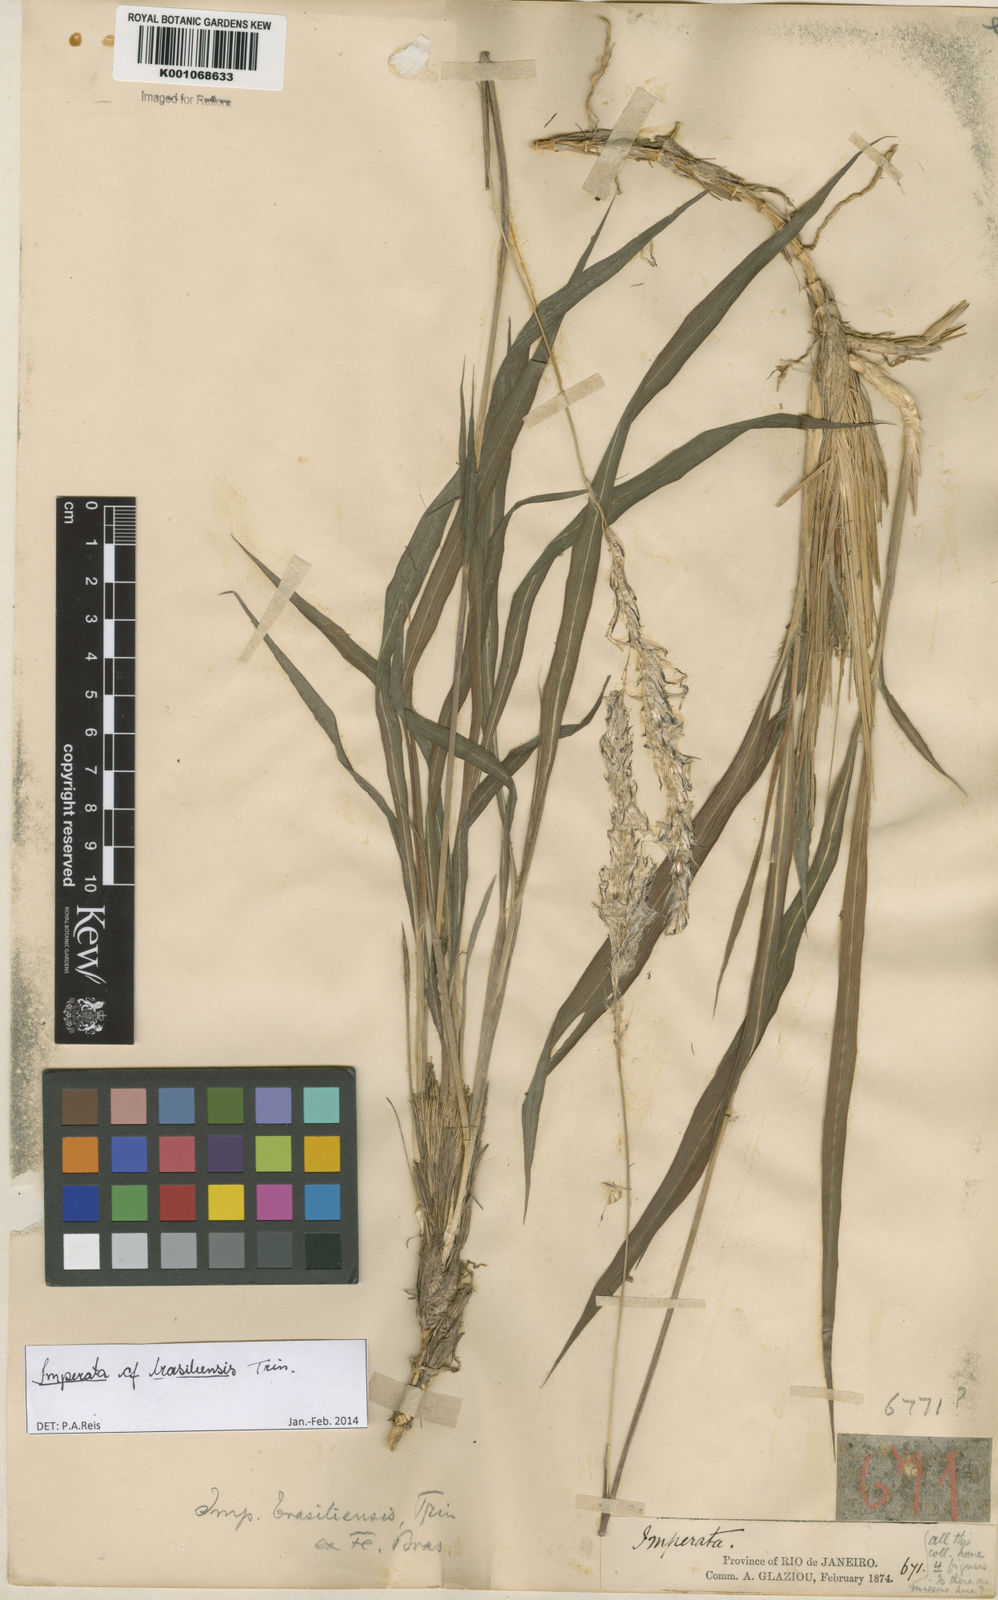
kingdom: Plantae
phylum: Tracheophyta
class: Liliopsida
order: Poales
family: Poaceae
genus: Imperata
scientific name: Imperata brasiliensis
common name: Brazilian satintail
